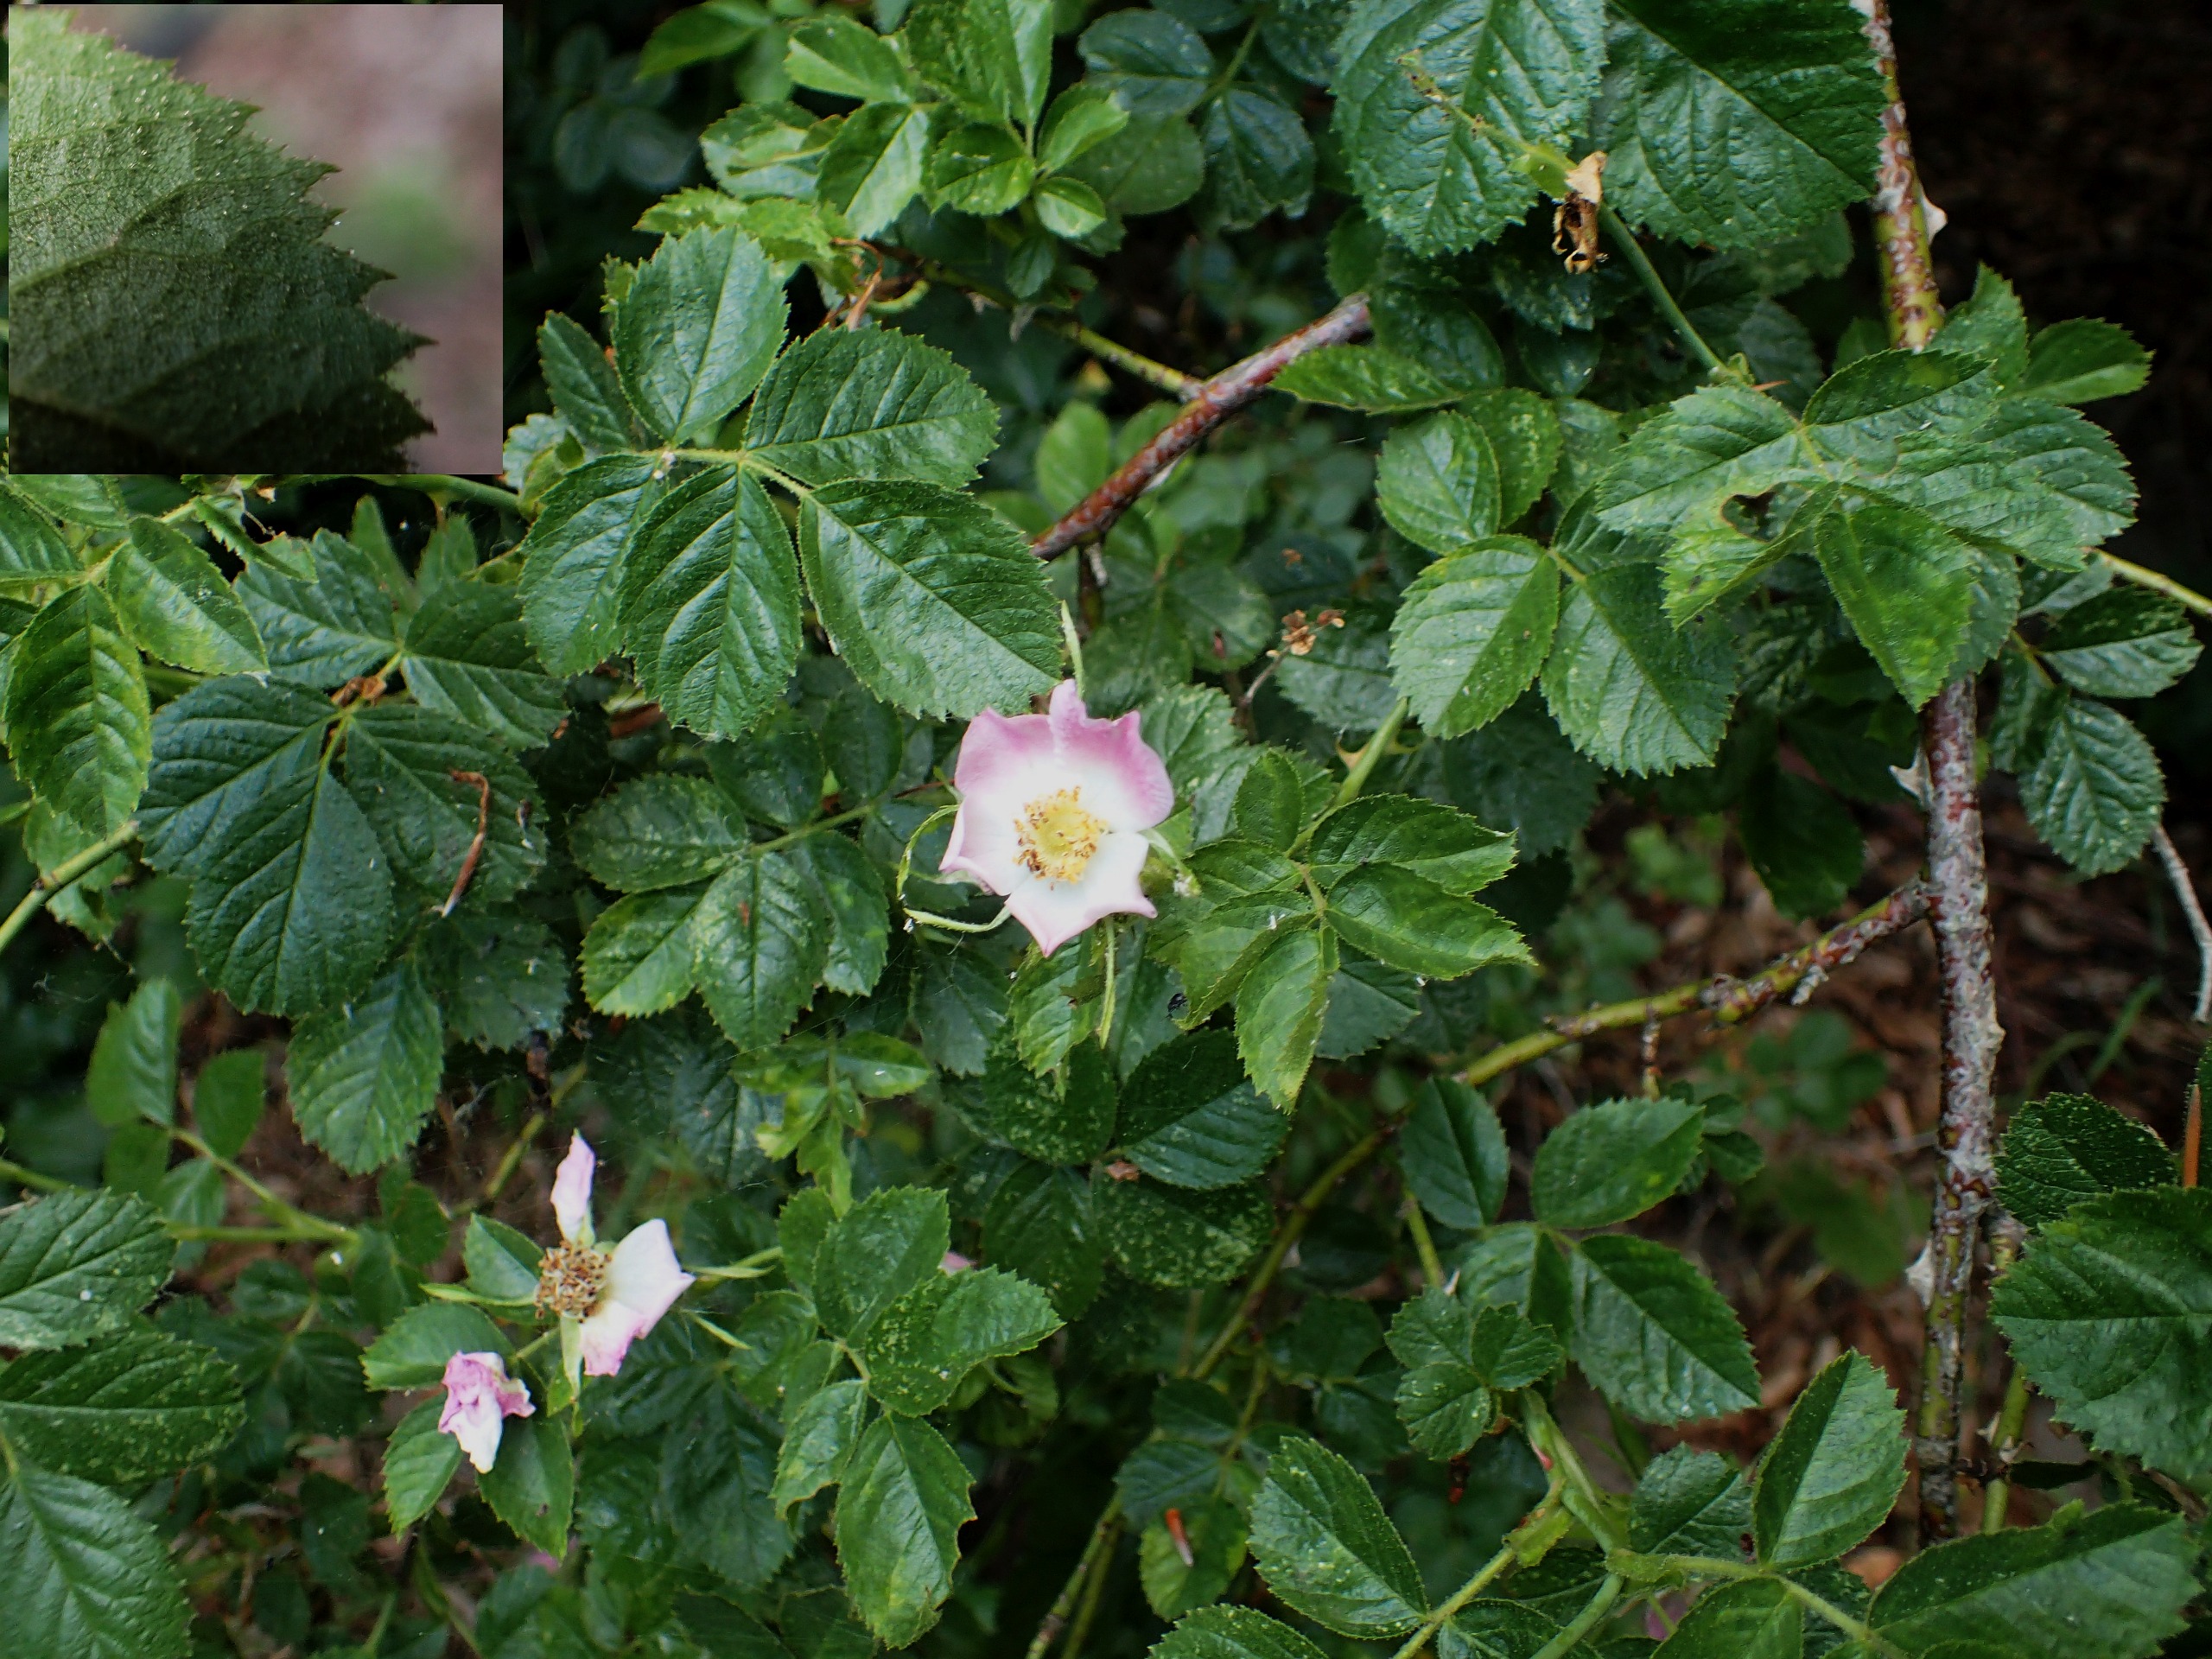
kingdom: Plantae
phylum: Tracheophyta
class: Magnoliopsida
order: Rosales
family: Rosaceae
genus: Rosa
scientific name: Rosa rubiginosa
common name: Æble-rose
